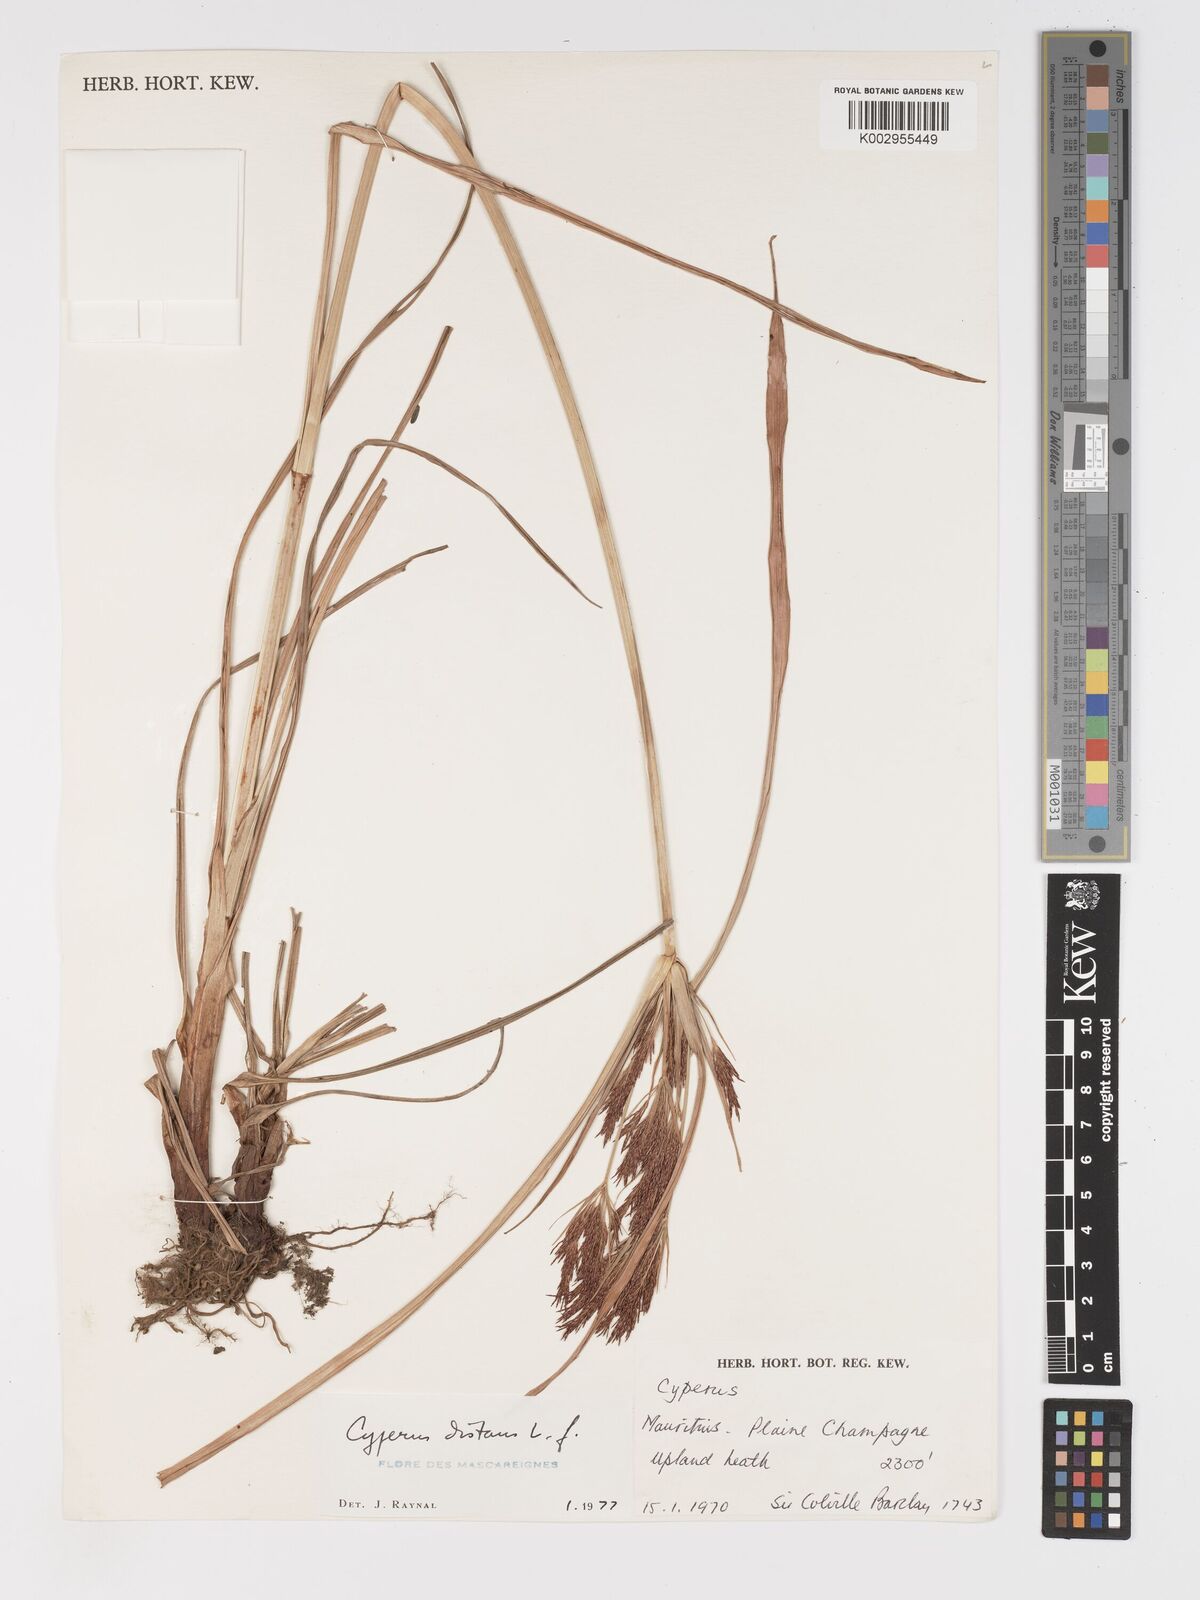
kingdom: Plantae
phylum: Tracheophyta
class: Liliopsida
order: Poales
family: Cyperaceae
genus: Cyperus
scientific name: Cyperus distans
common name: Slender cyperus
